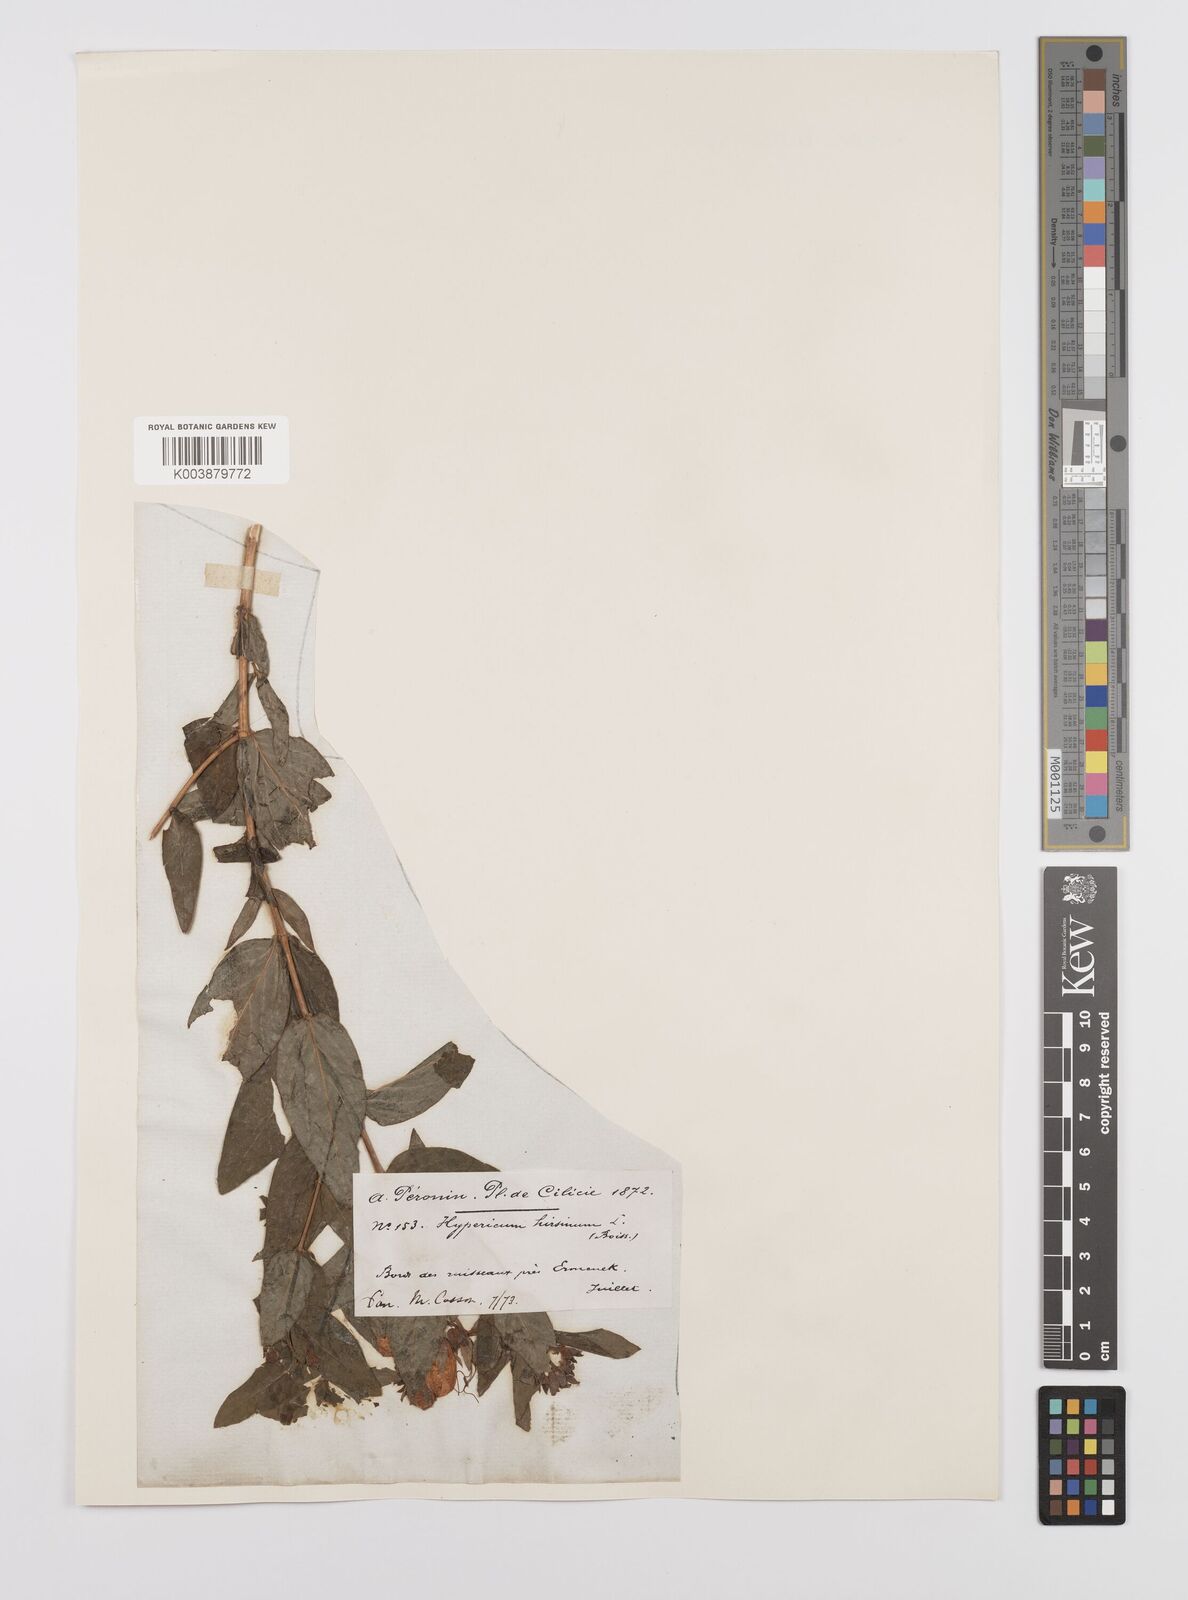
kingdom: Plantae
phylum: Tracheophyta
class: Magnoliopsida
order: Malpighiales
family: Hypericaceae
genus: Hypericum
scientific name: Hypericum hircinum
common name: Stinking tutsan
